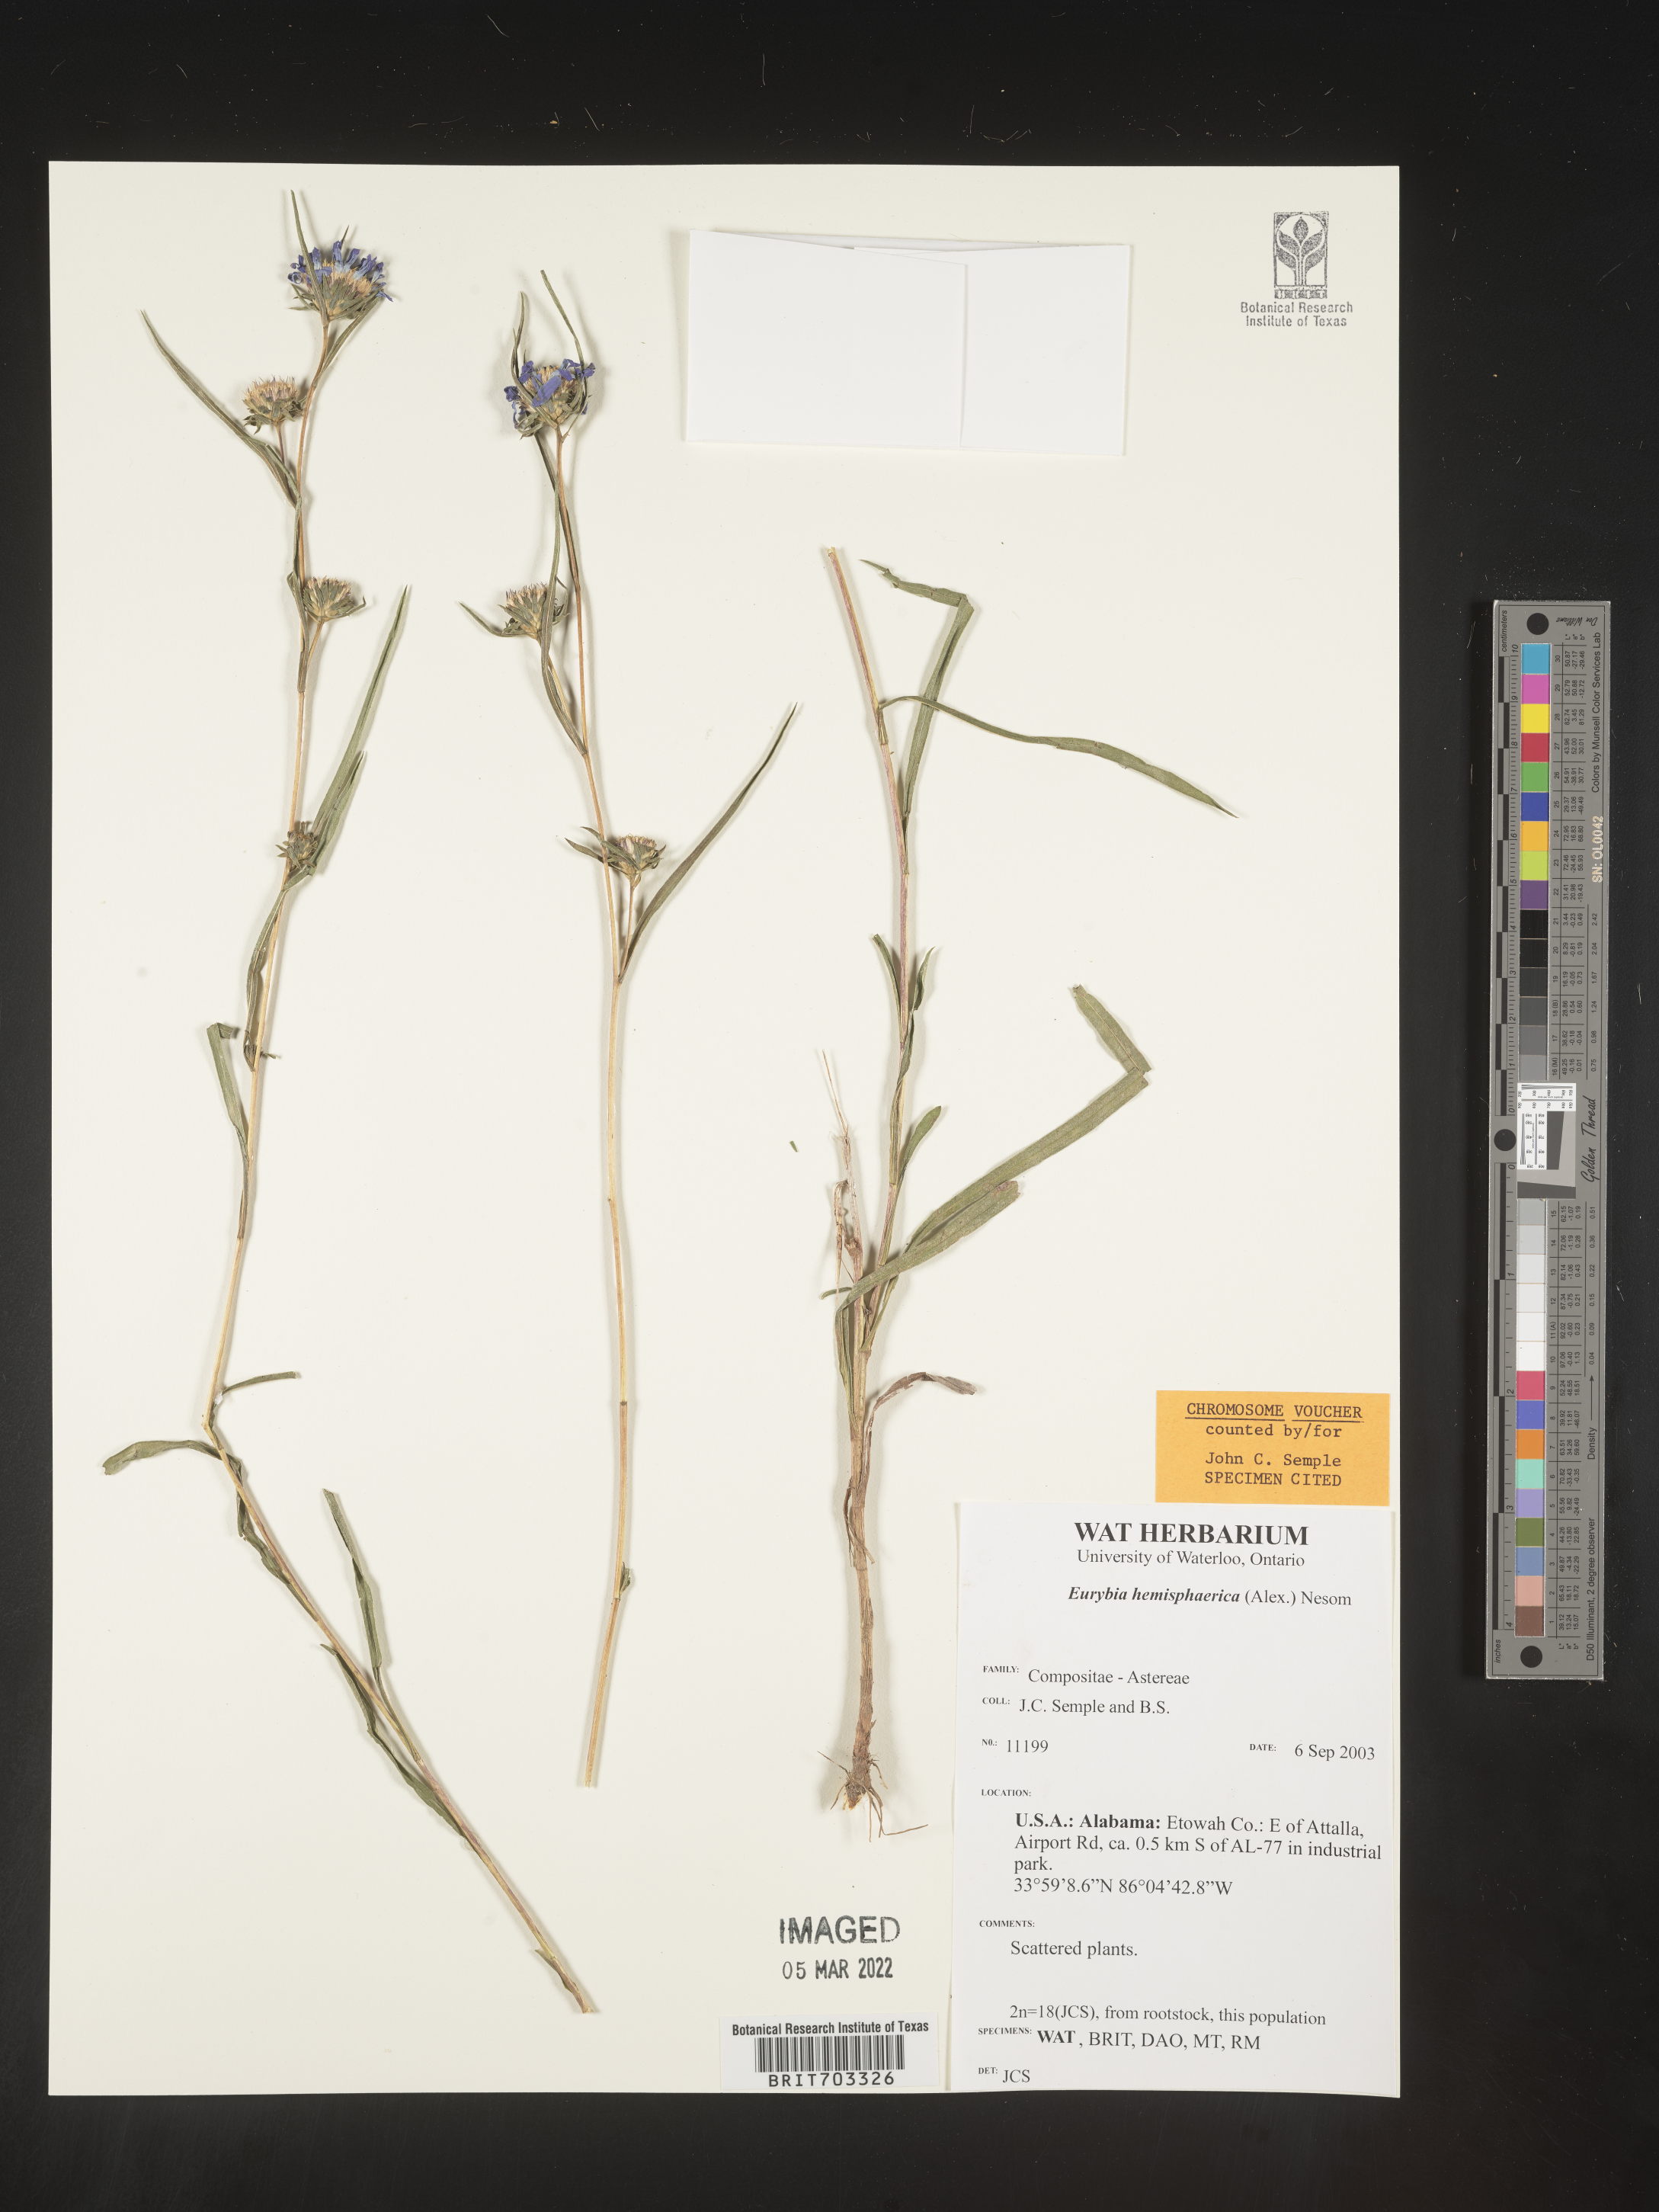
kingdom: Plantae
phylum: Tracheophyta
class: Magnoliopsida
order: Asterales
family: Asteraceae
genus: Eurybia
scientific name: Eurybia hemispherica
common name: Showy aster
